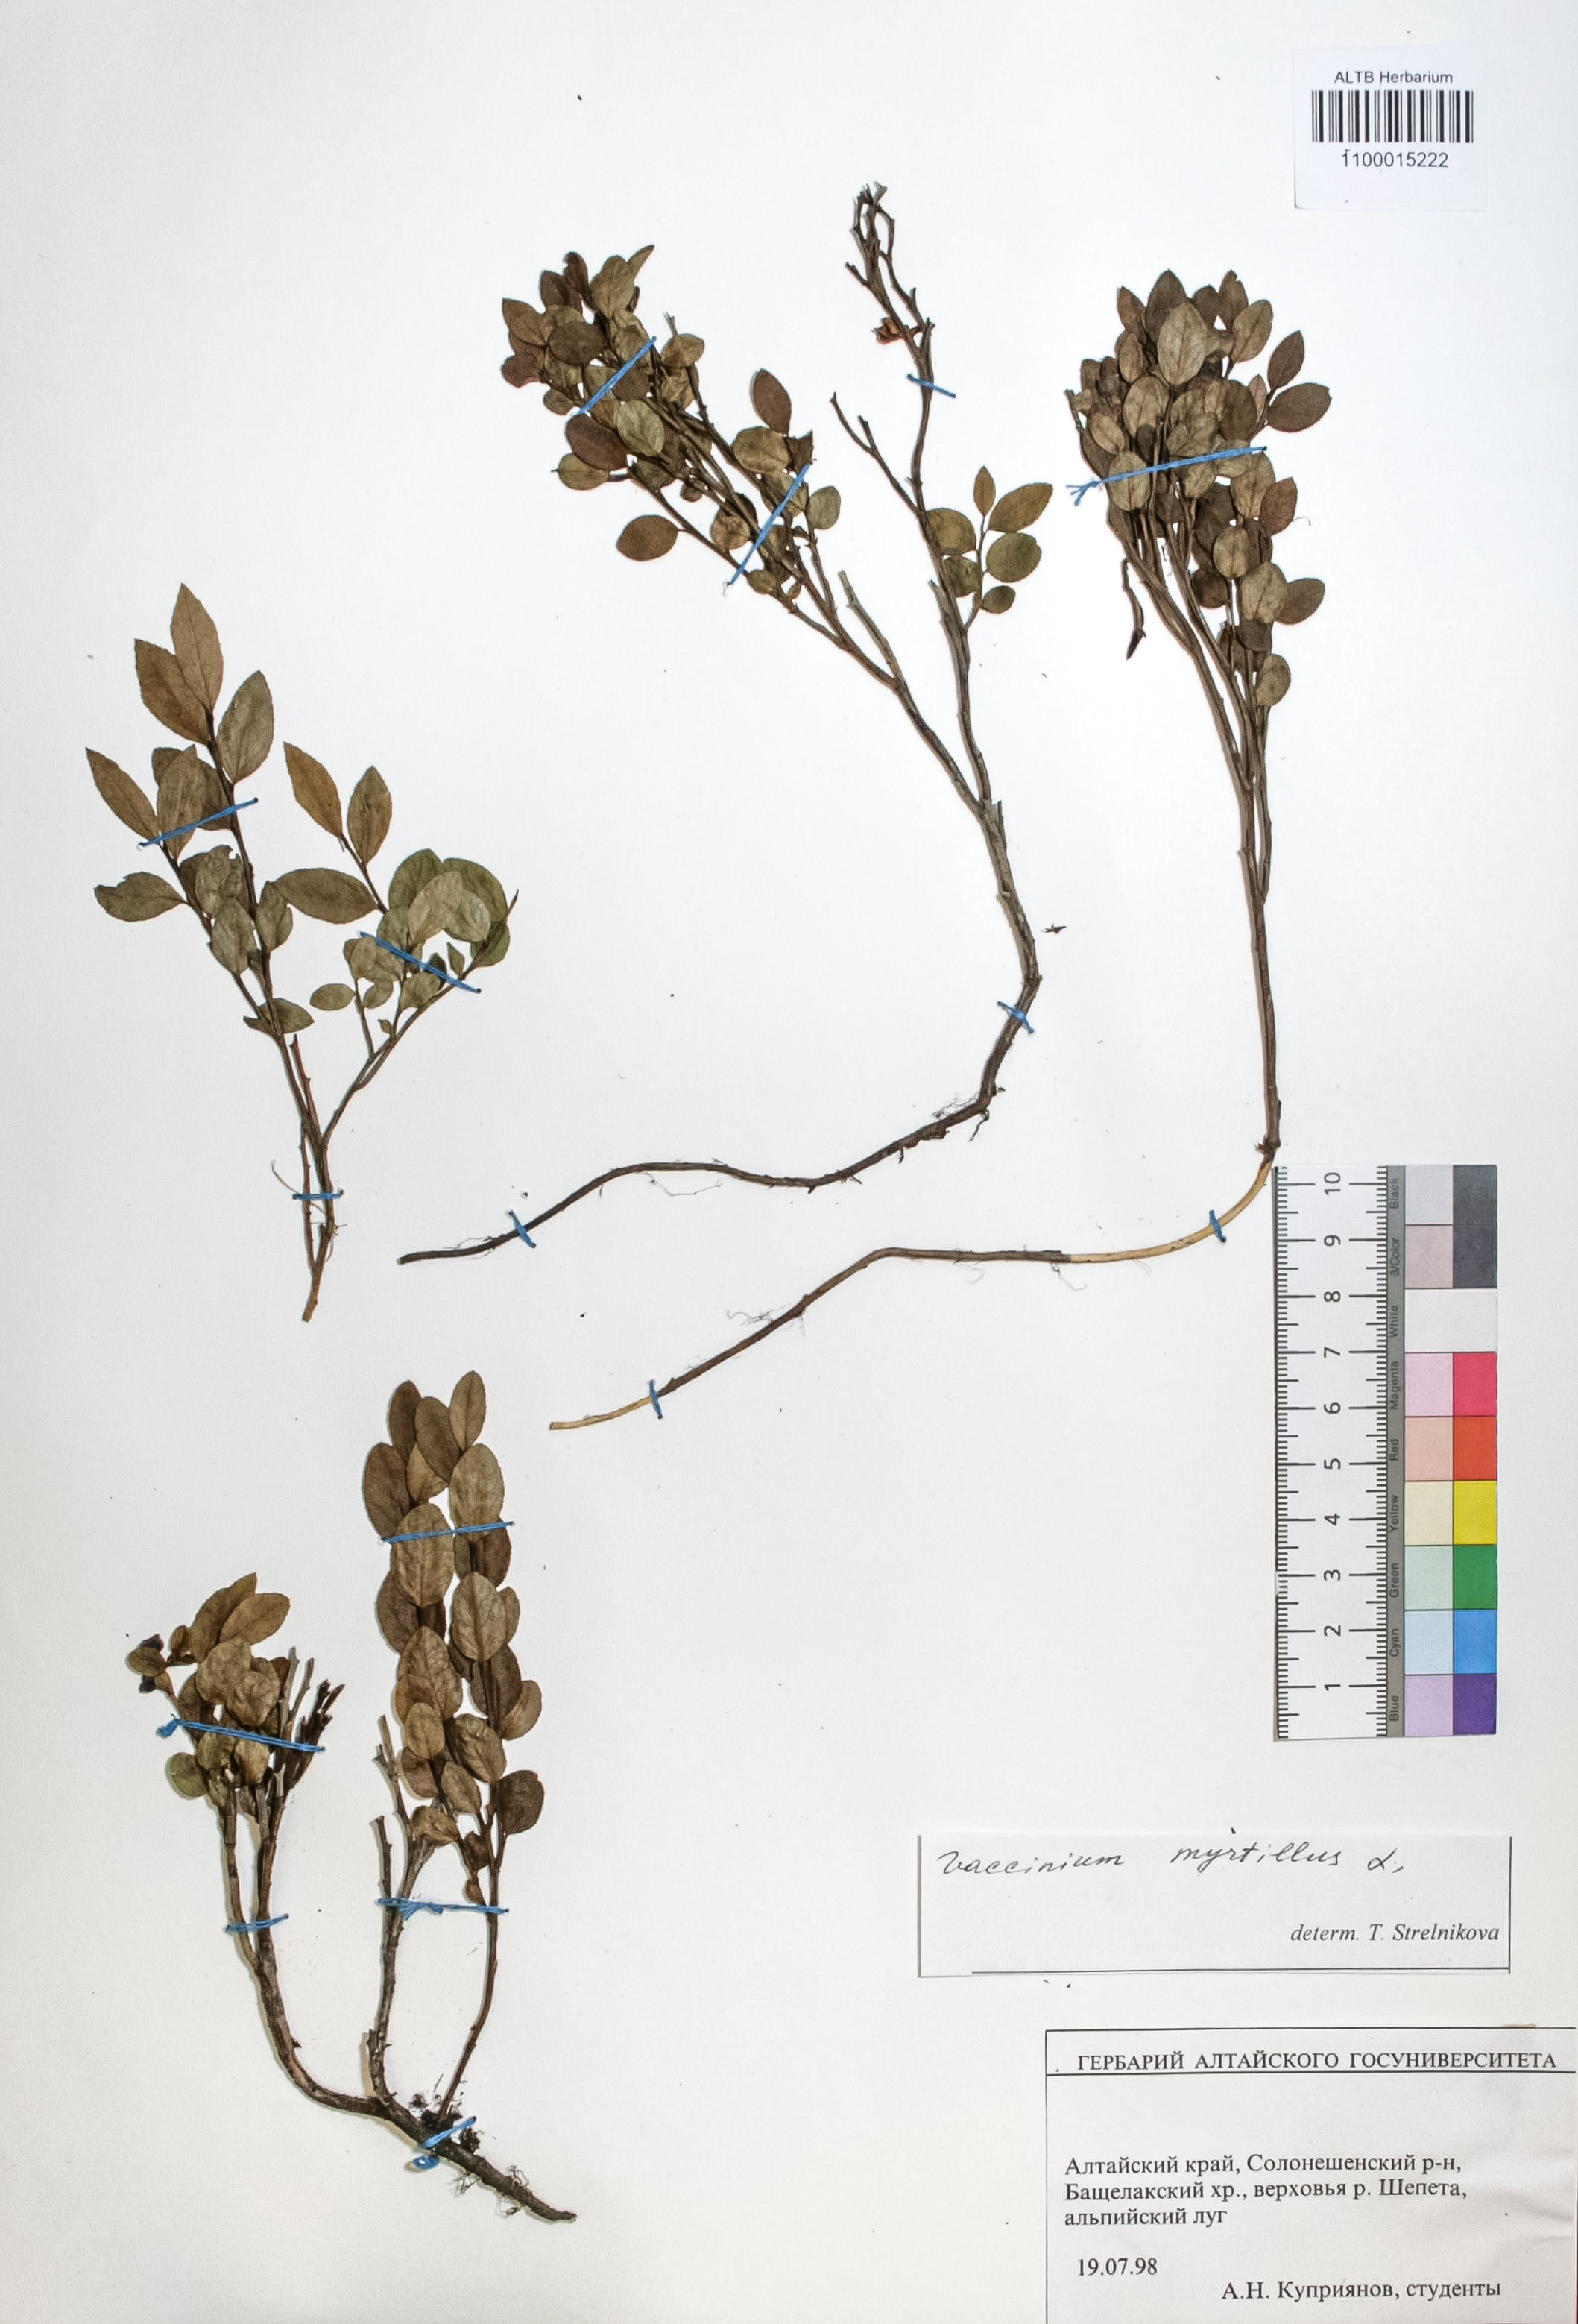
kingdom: Plantae
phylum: Tracheophyta
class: Magnoliopsida
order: Ericales
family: Ericaceae
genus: Vaccinium
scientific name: Vaccinium myrtillus
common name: Bilberry
